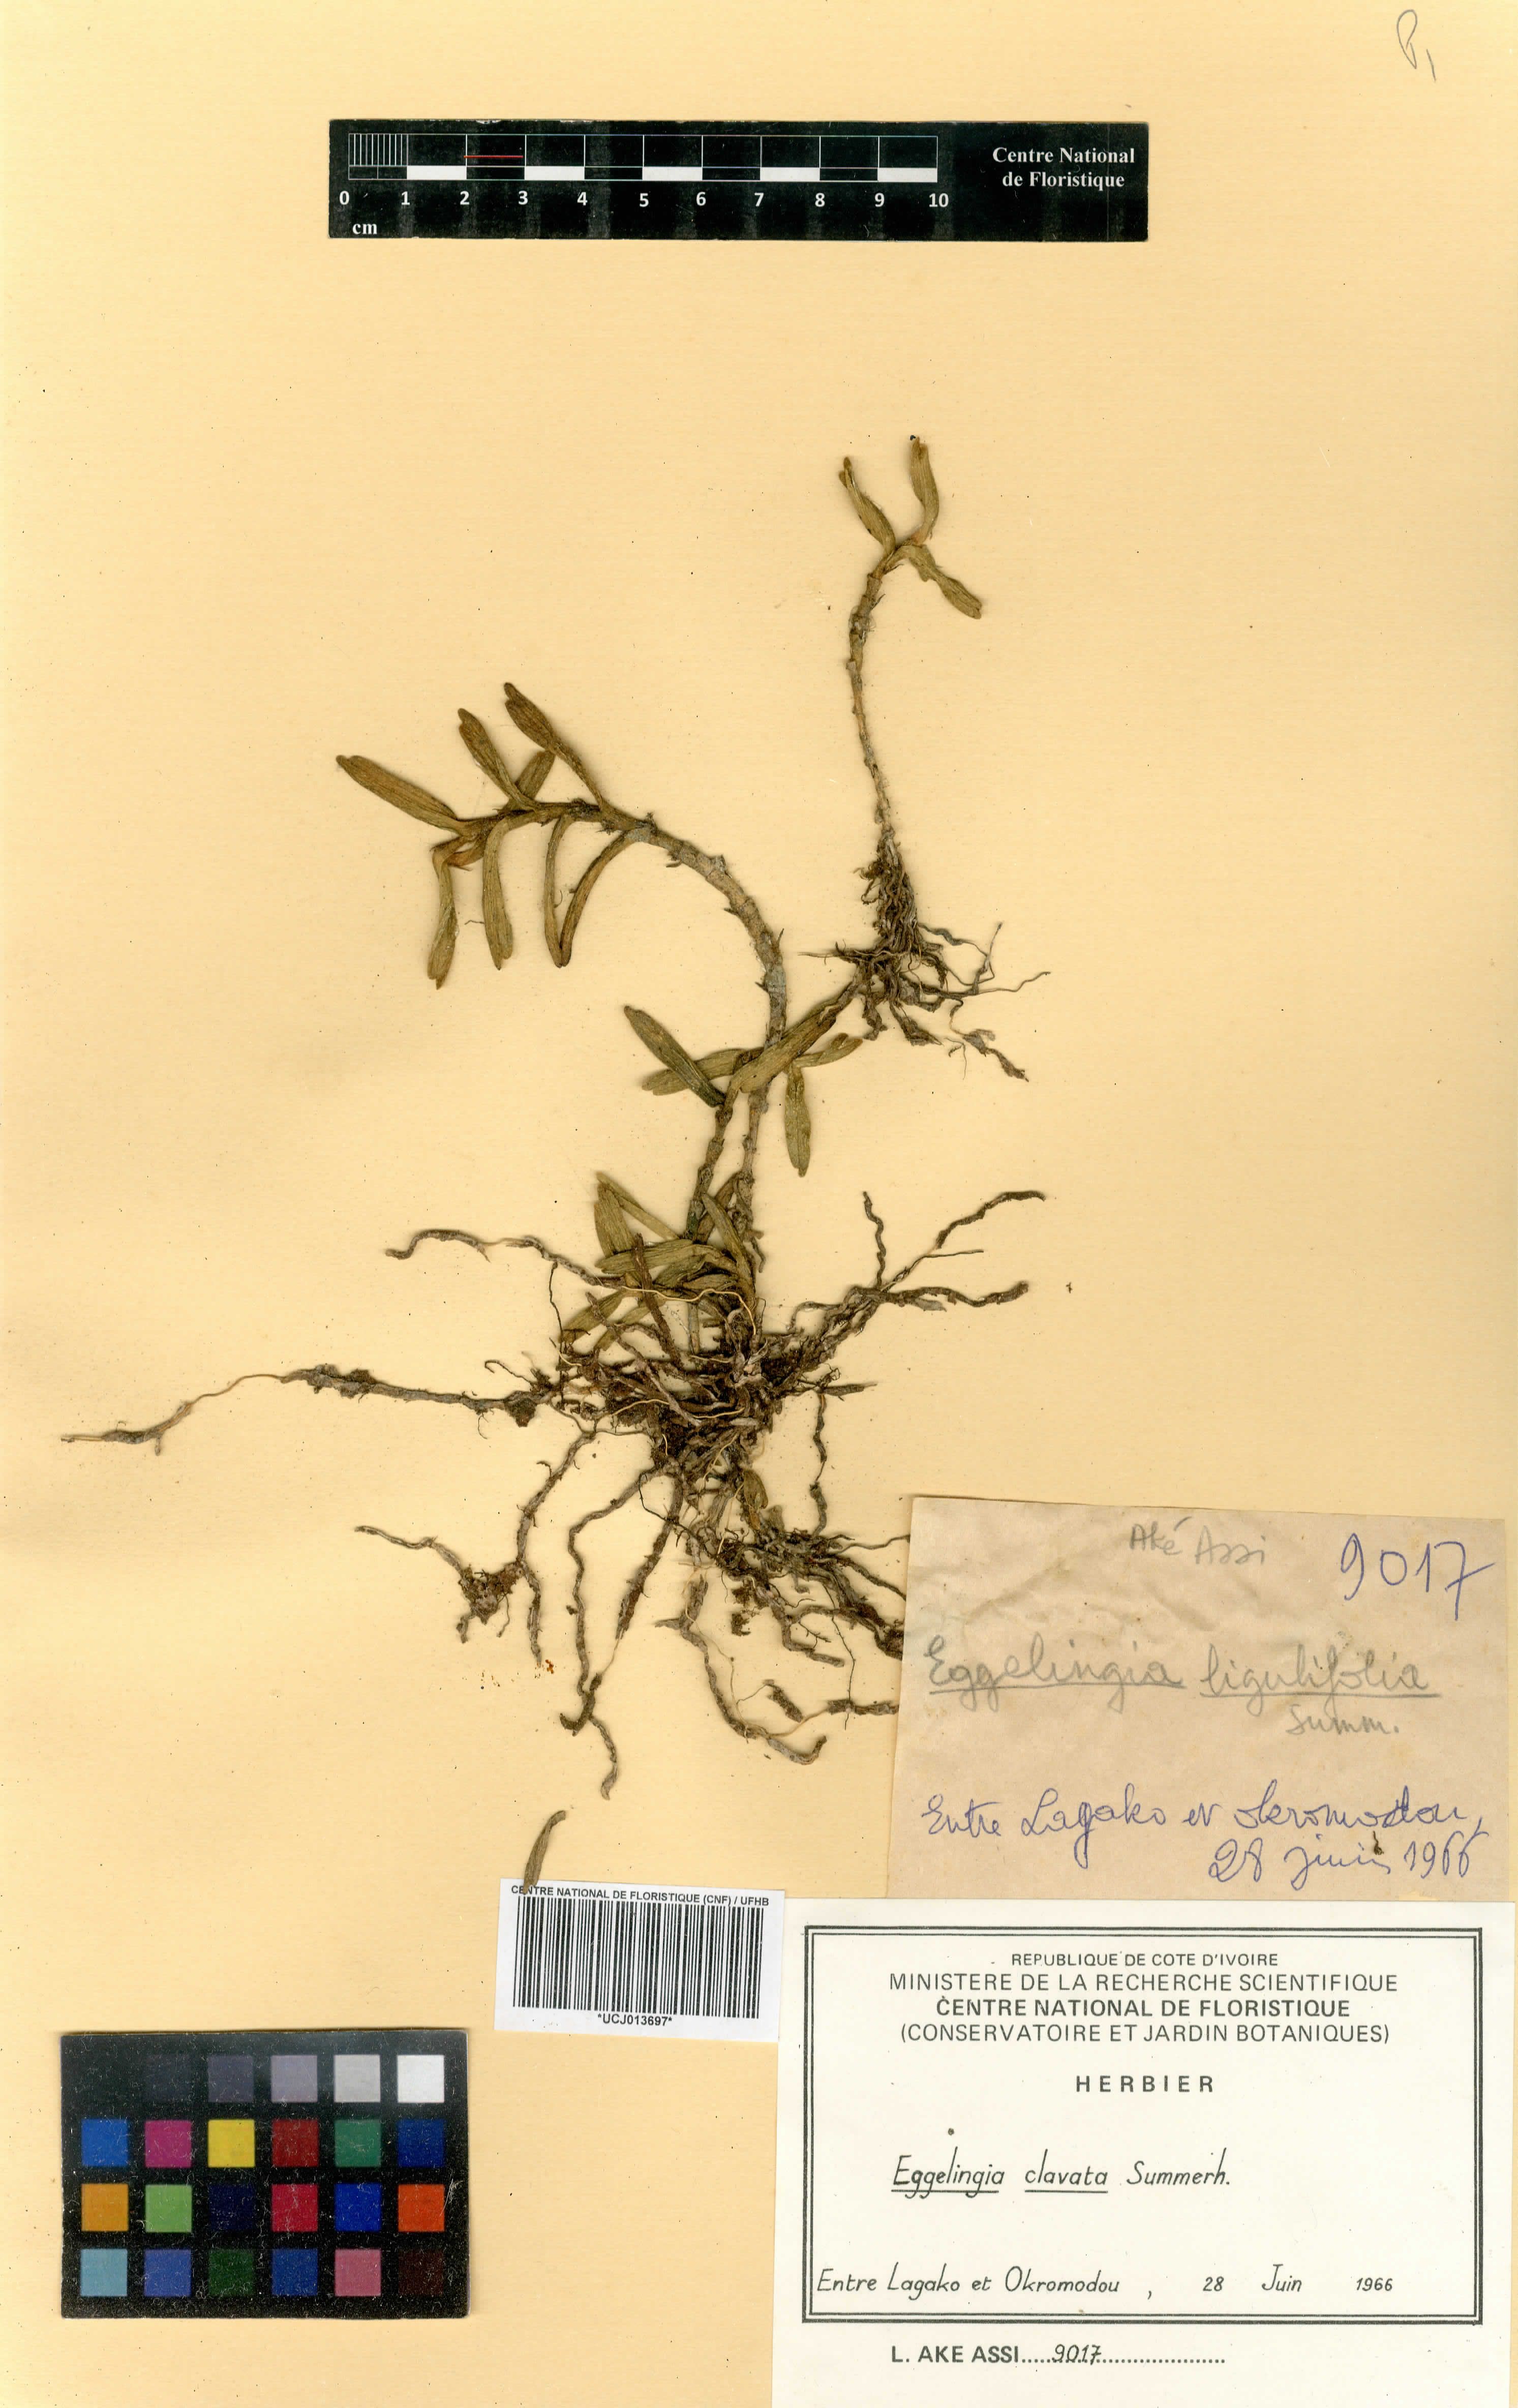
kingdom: Plantae
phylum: Tracheophyta
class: Liliopsida
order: Asparagales
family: Orchidaceae
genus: Eggelingia
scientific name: Eggelingia clavata
